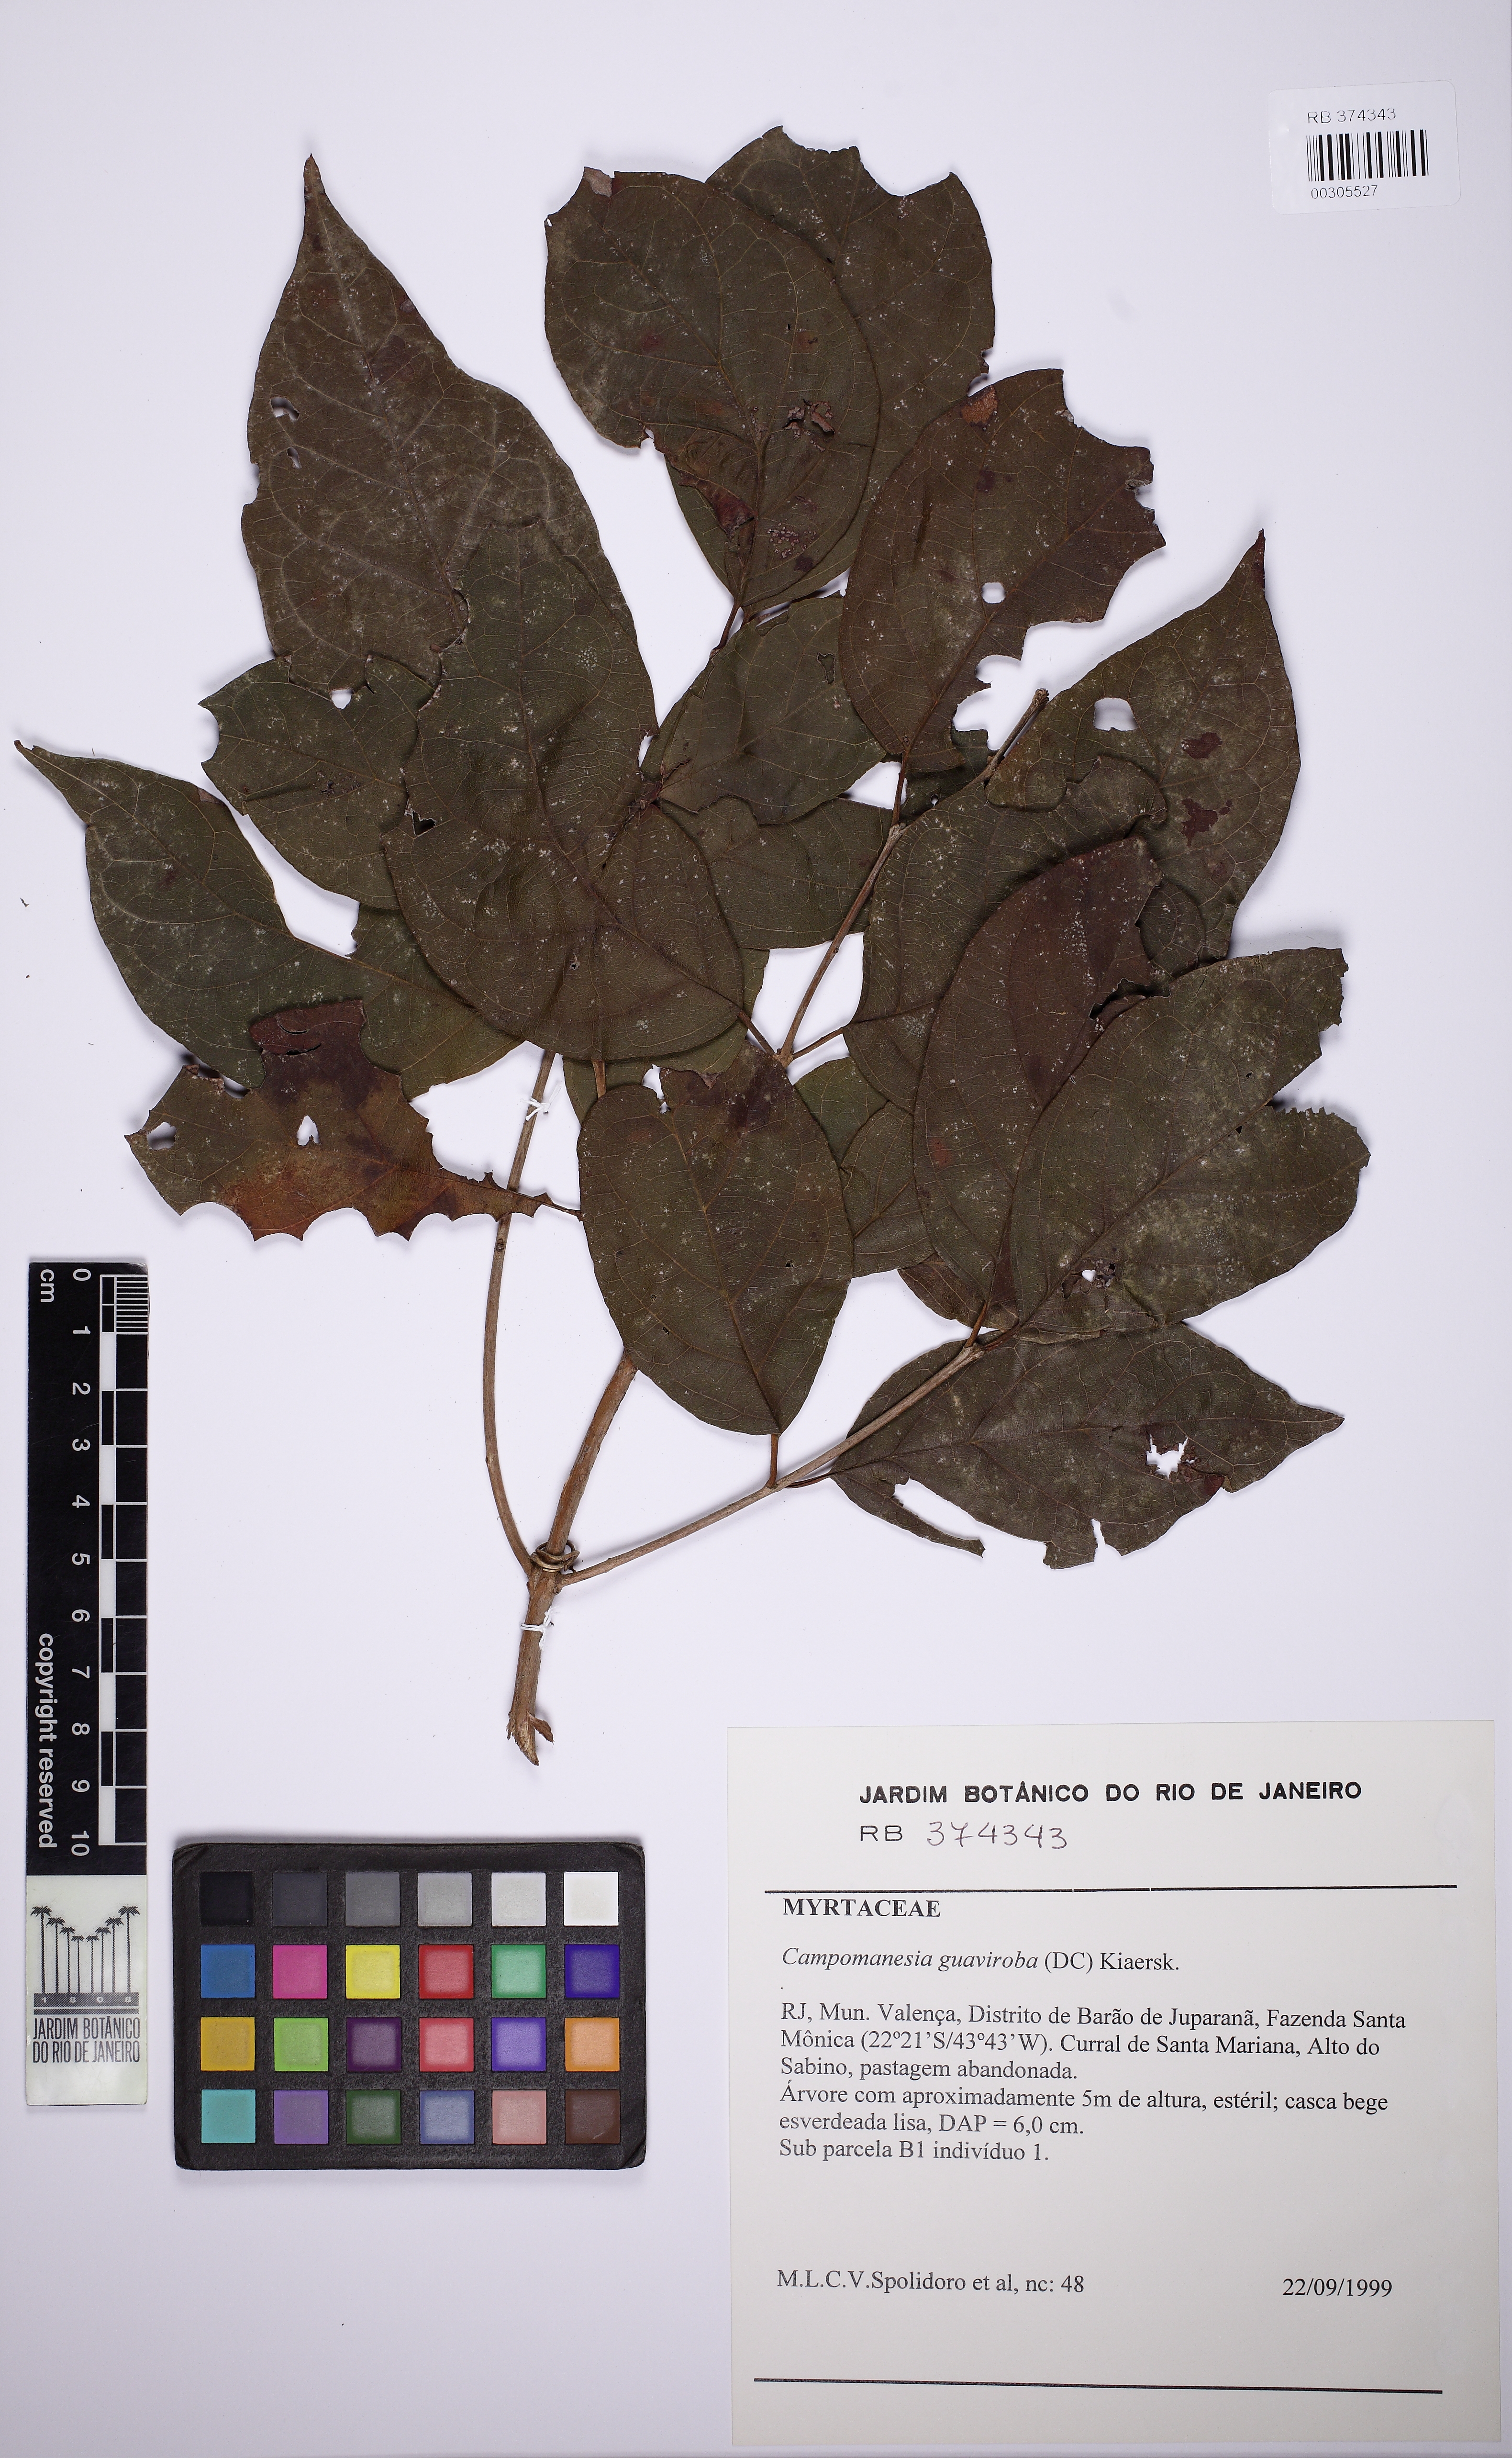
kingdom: Plantae
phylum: Tracheophyta
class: Magnoliopsida
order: Myrtales
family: Myrtaceae
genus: Campomanesia
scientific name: Campomanesia guaviroba
